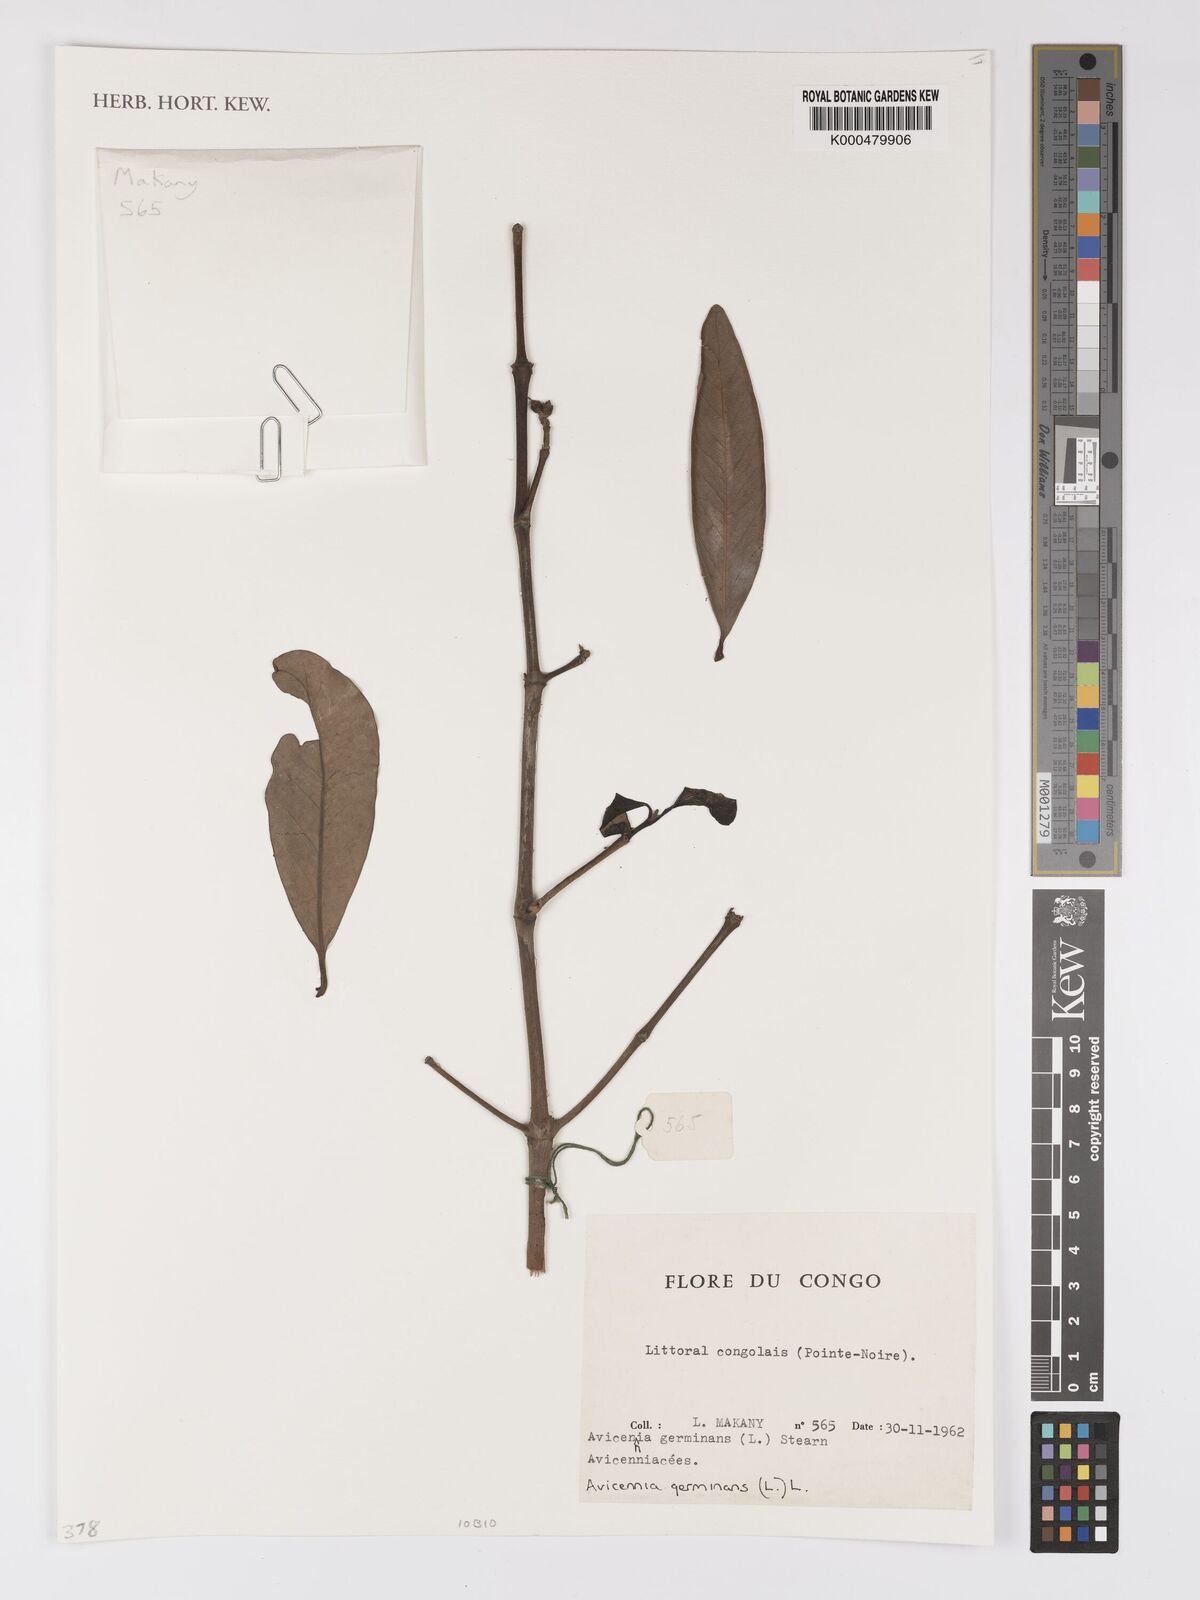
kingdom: Plantae
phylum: Tracheophyta
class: Magnoliopsida
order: Lamiales
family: Acanthaceae
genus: Avicennia
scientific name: Avicennia germinans
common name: Black mangrove
